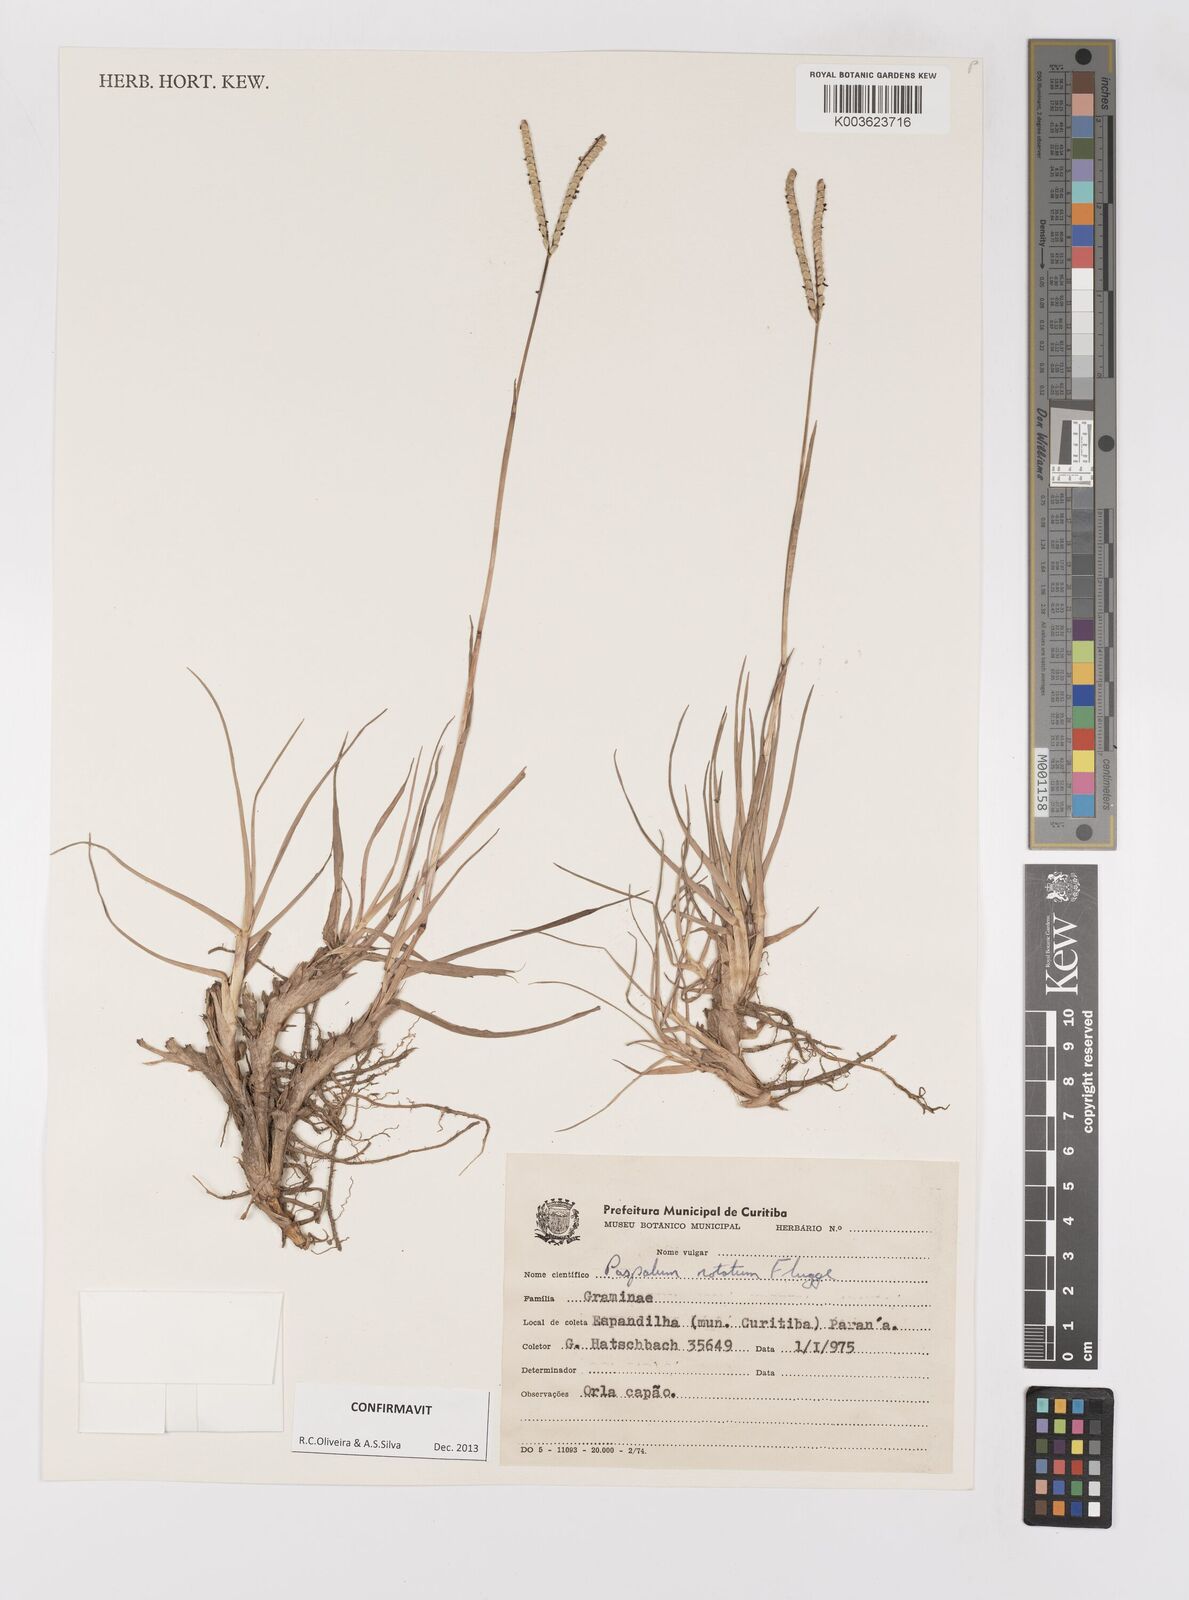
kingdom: Plantae
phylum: Tracheophyta
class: Liliopsida
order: Poales
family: Poaceae
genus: Paspalum
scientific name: Paspalum notatum
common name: Bahiagrass
